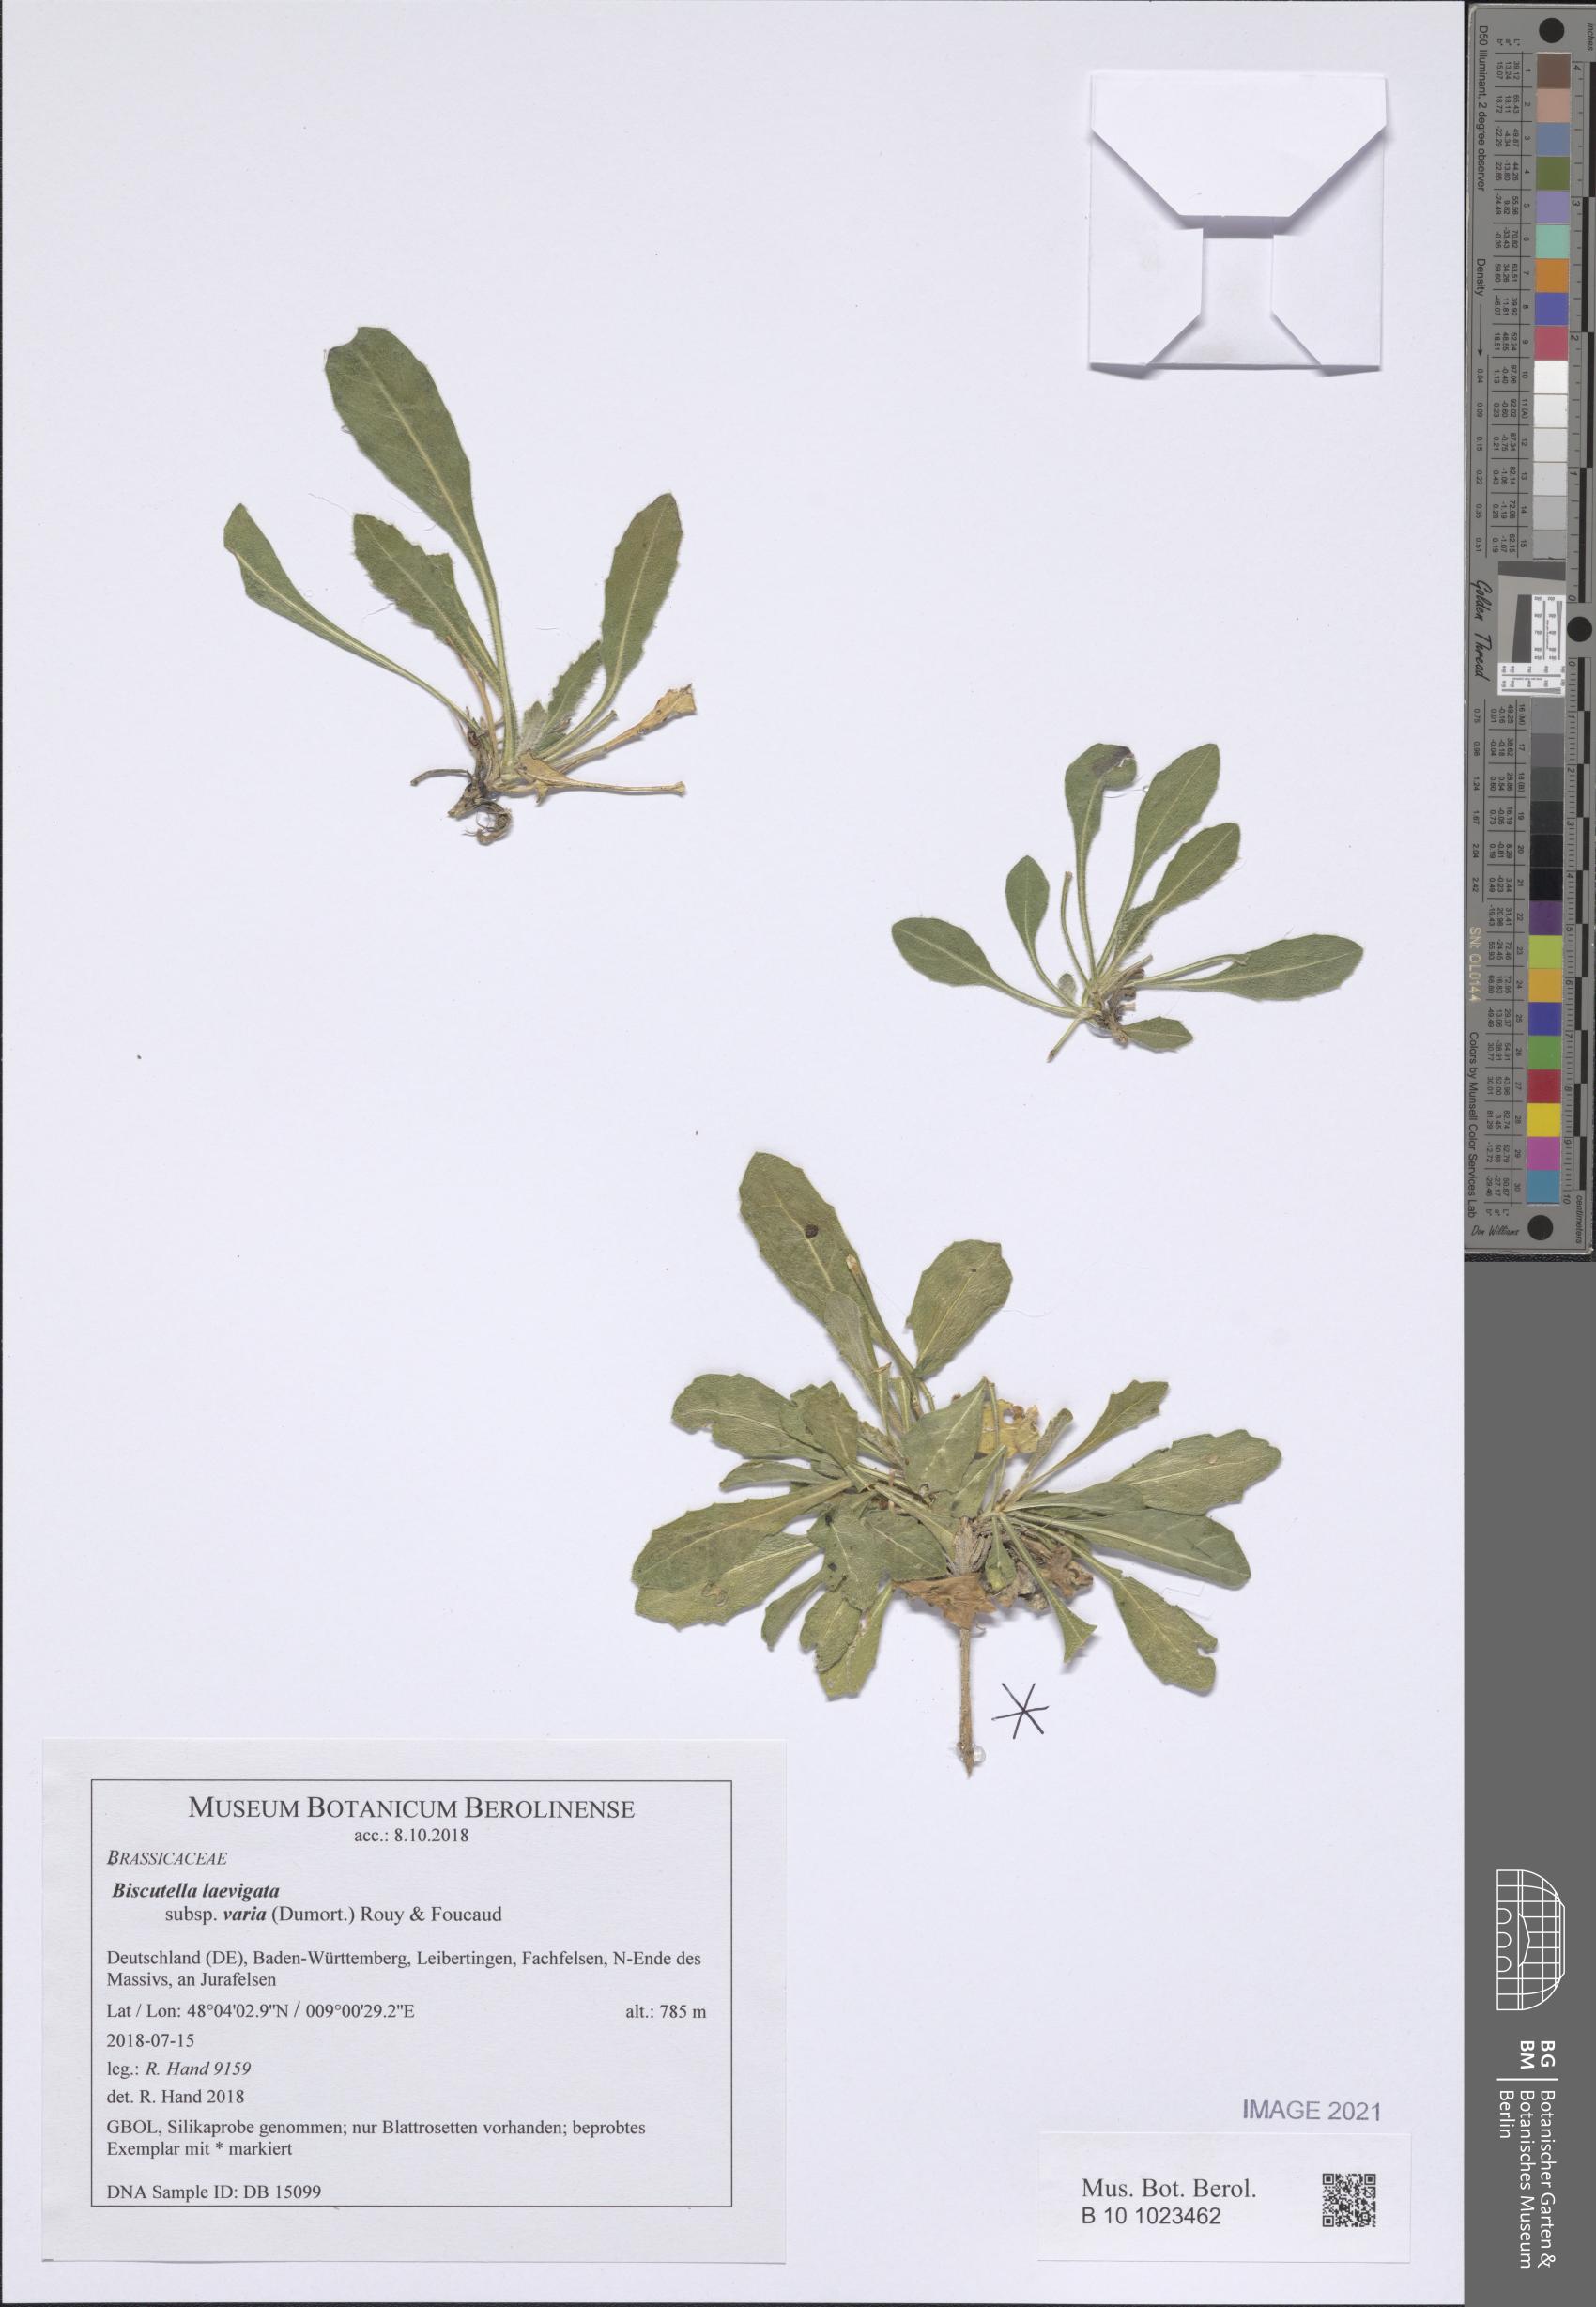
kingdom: Plantae
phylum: Tracheophyta
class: Magnoliopsida
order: Brassicales
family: Brassicaceae
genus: Biscutella
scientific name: Biscutella laevigata
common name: Buckler mustard
